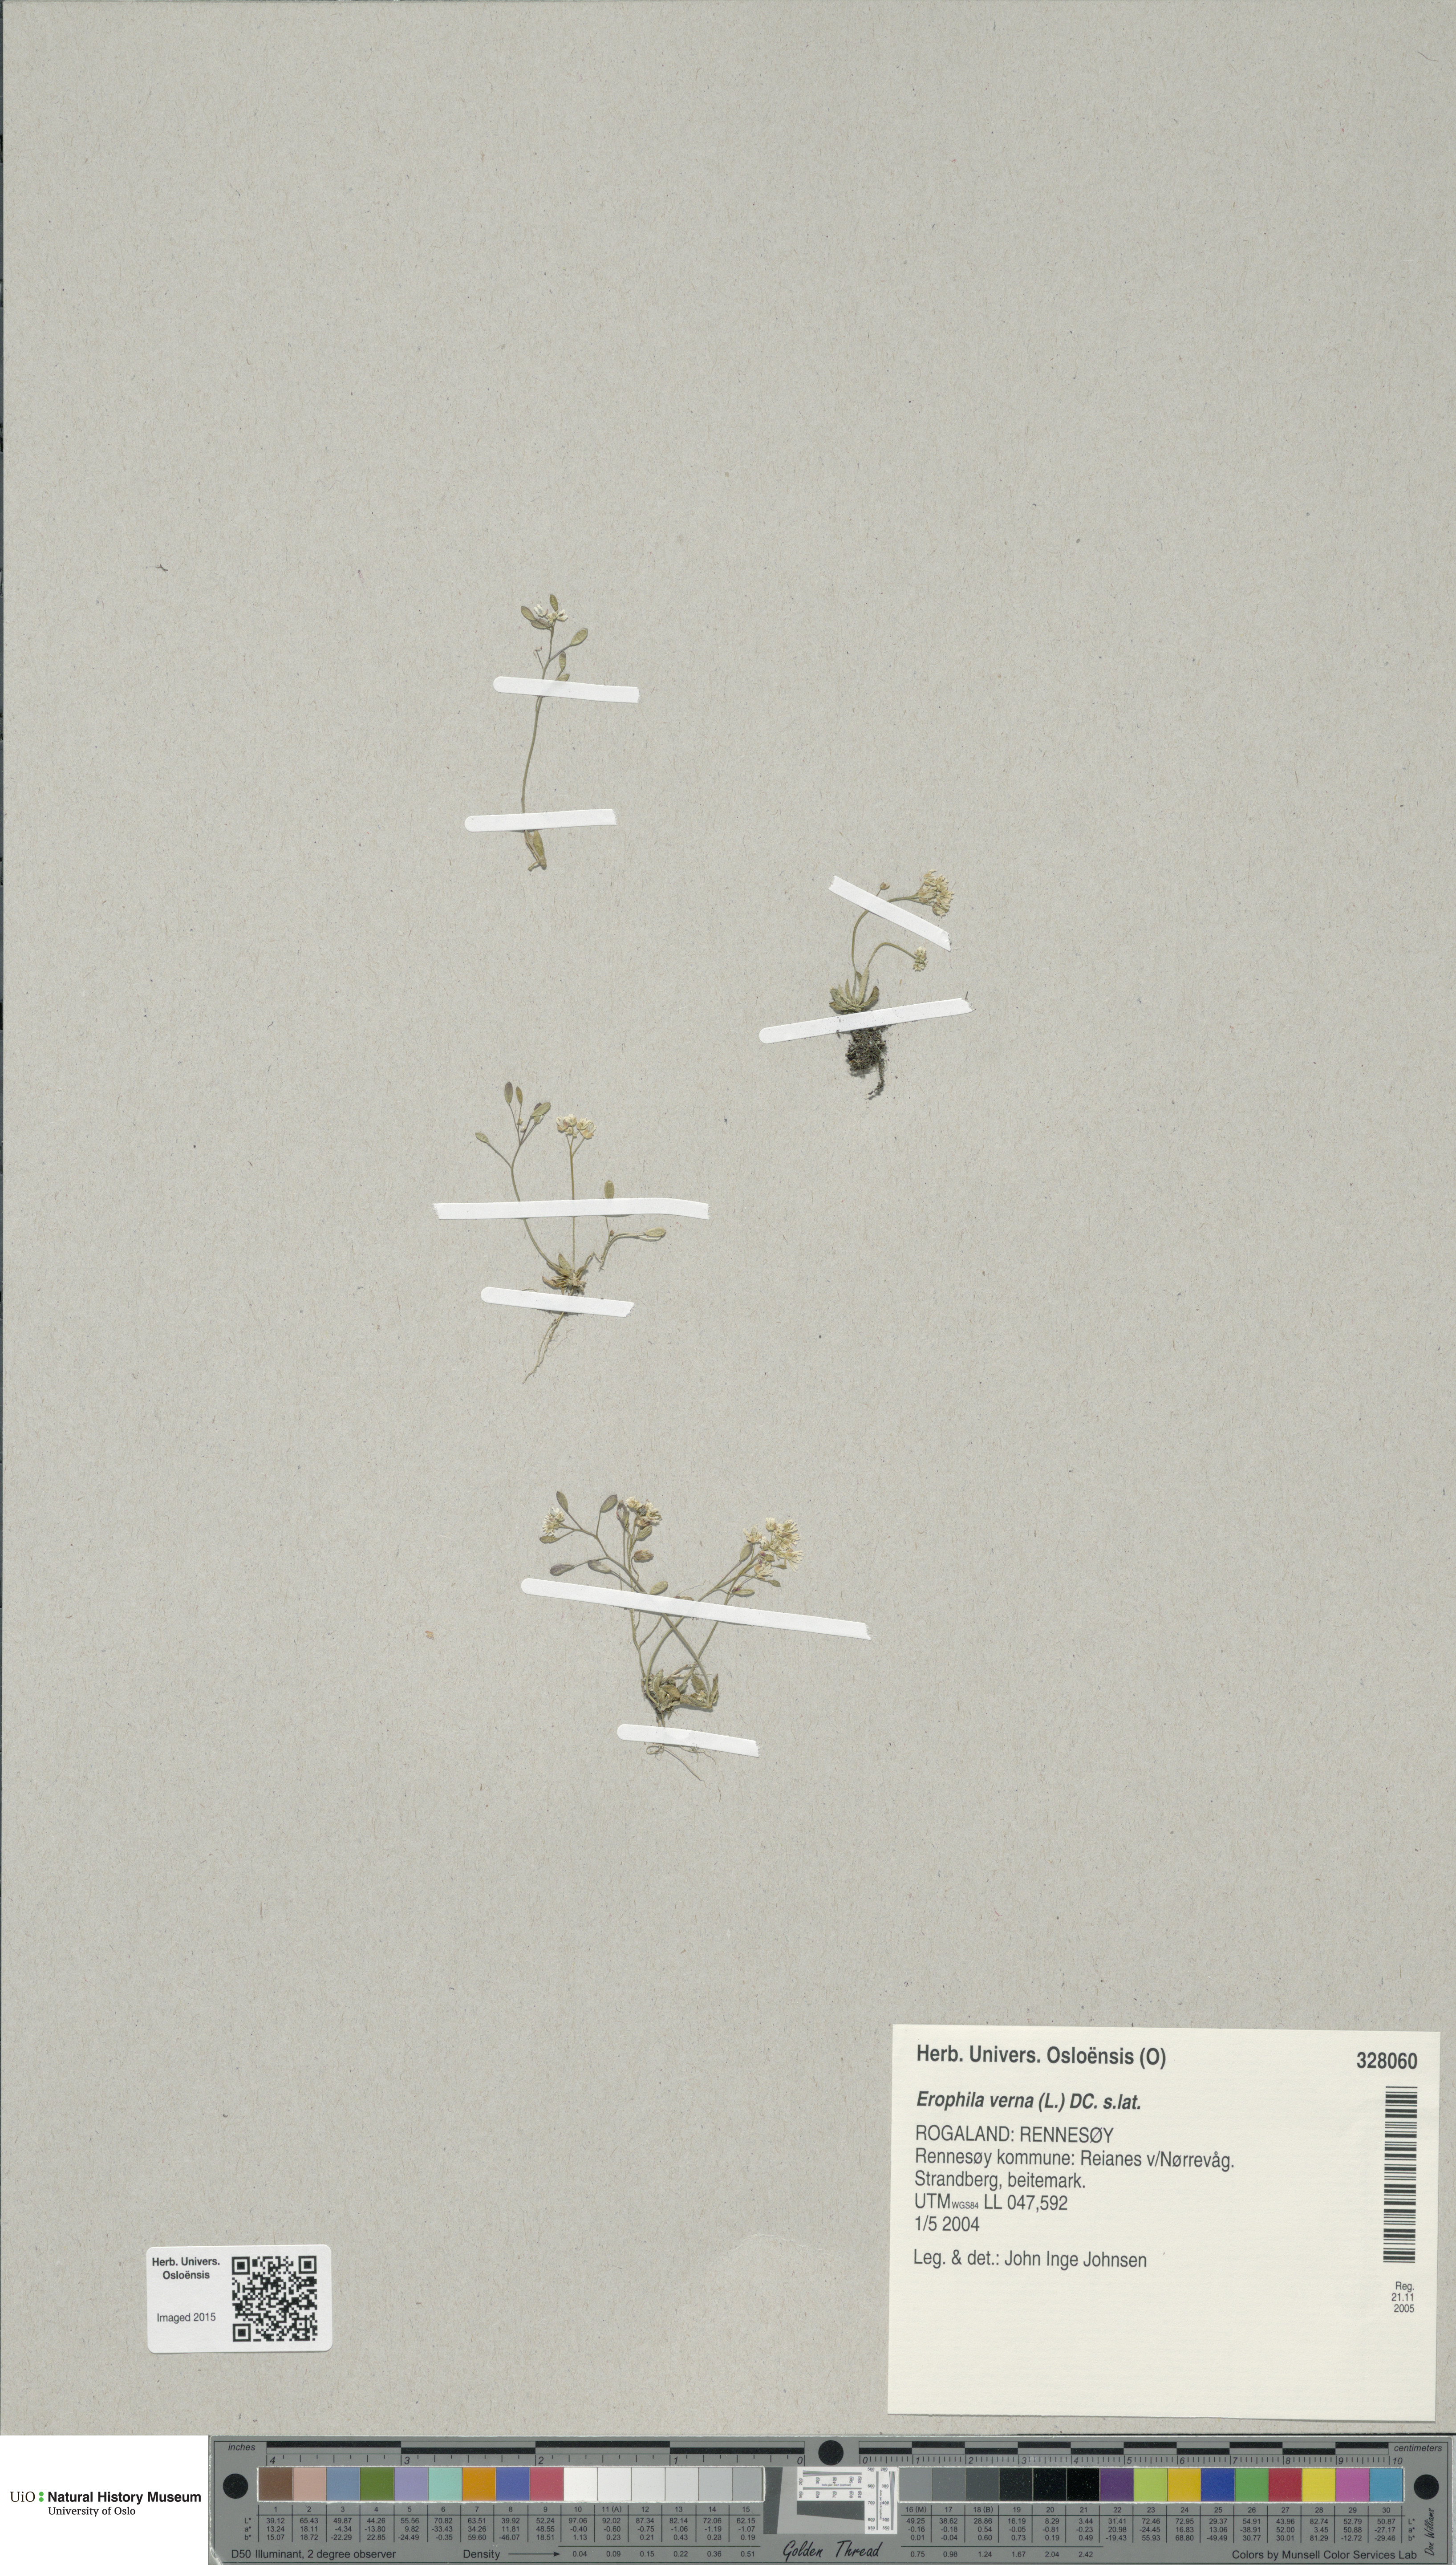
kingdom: Plantae
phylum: Tracheophyta
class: Magnoliopsida
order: Brassicales
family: Brassicaceae
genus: Draba
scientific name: Draba verna
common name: Spring draba
